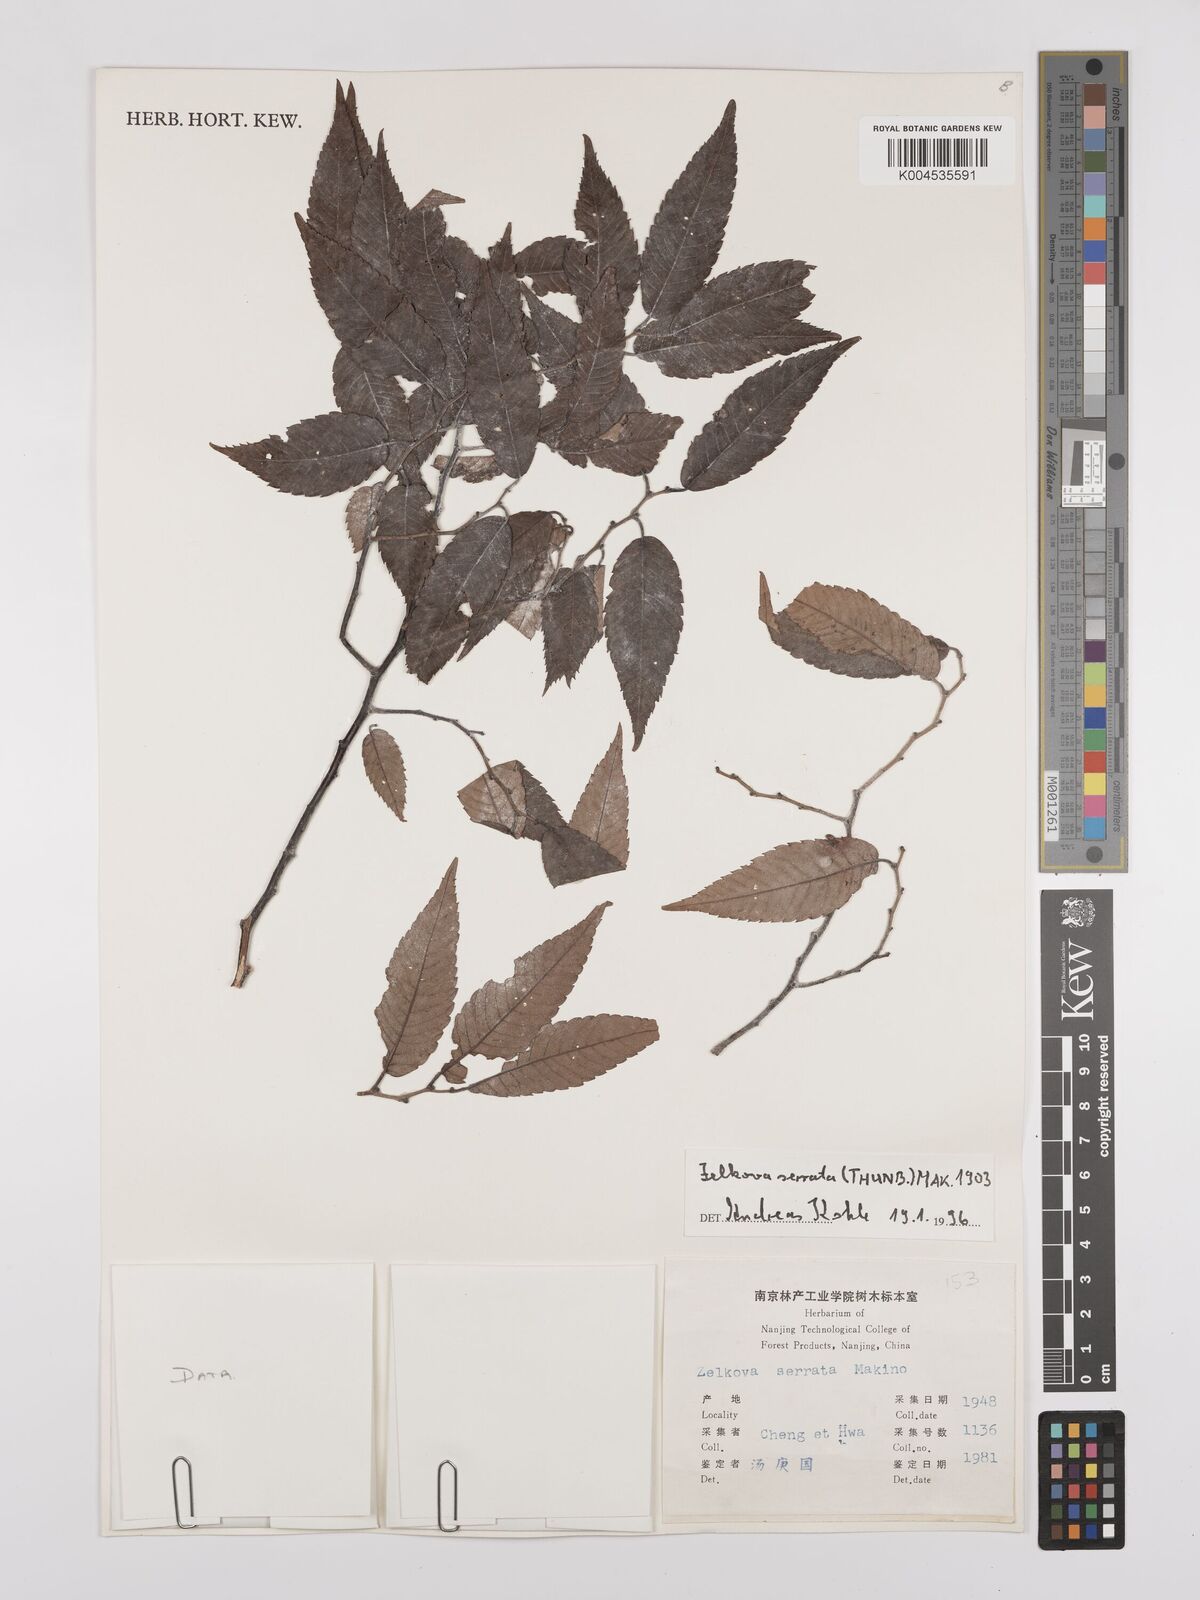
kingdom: Plantae
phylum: Tracheophyta
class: Magnoliopsida
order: Rosales
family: Ulmaceae
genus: Zelkova
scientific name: Zelkova serrata
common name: Japanese zelkova
